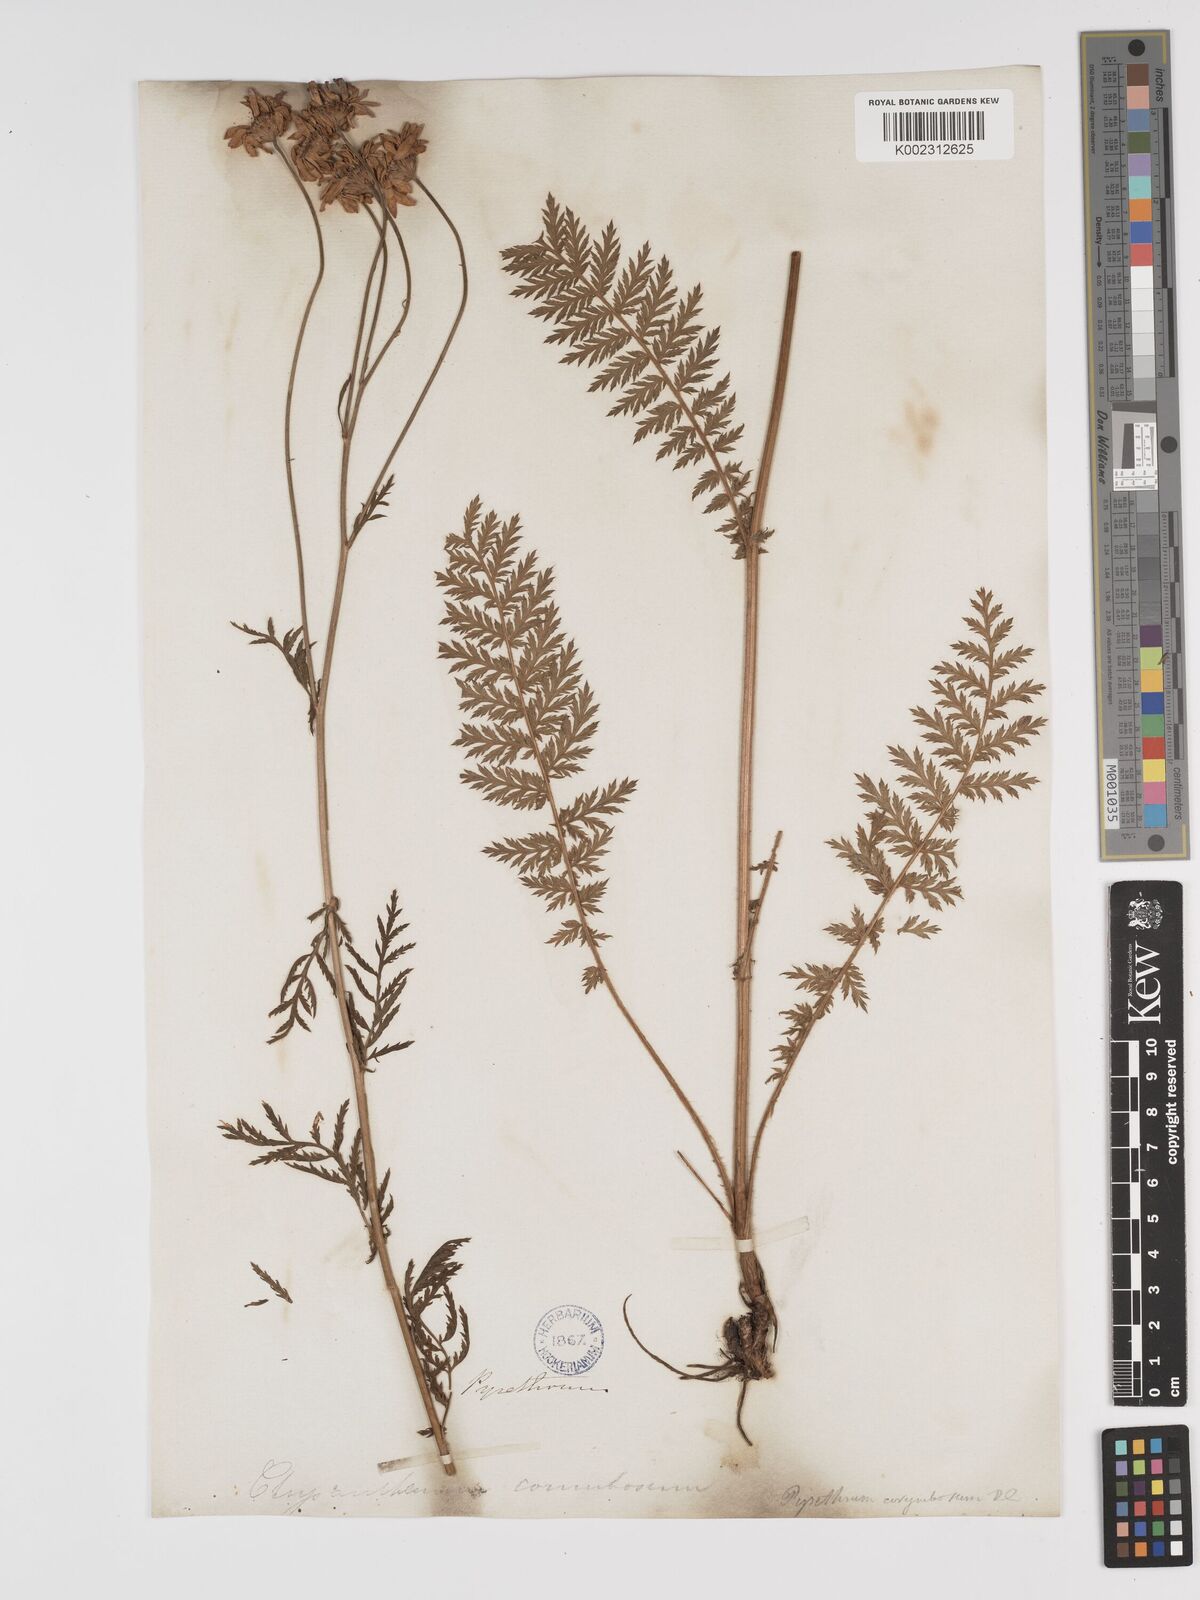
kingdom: Plantae
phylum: Tracheophyta
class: Magnoliopsida
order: Asterales
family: Asteraceae
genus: Tanacetum
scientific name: Tanacetum corymbosum
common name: Scentless feverfew
